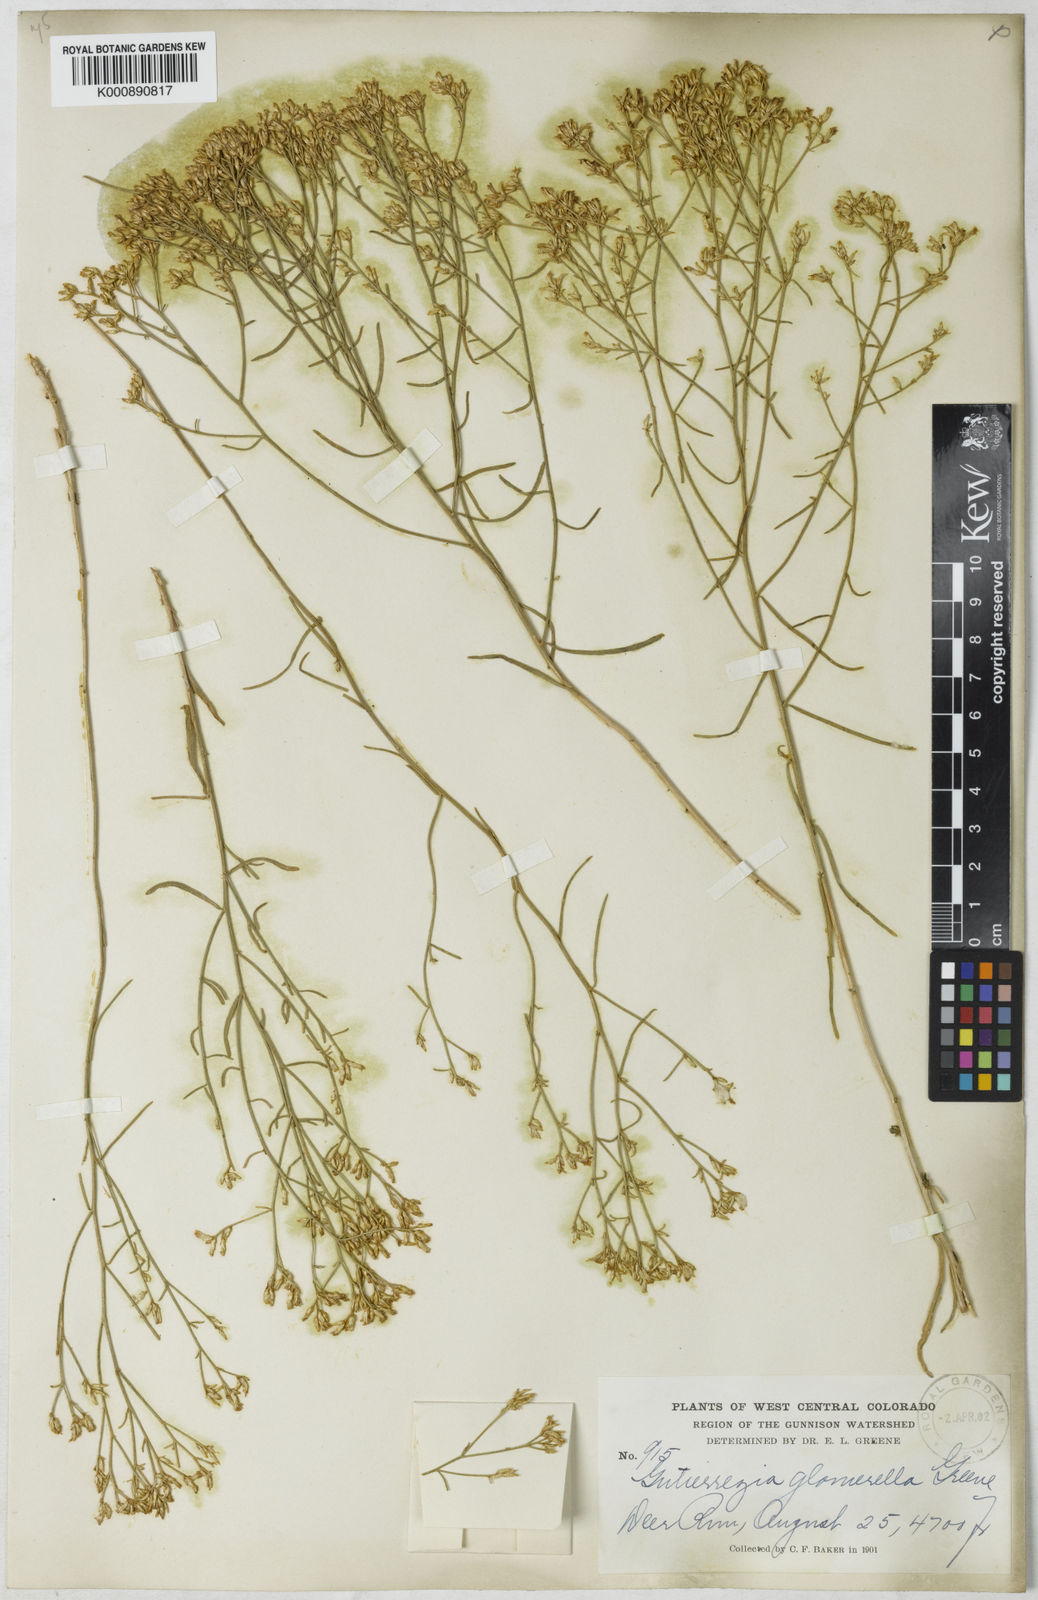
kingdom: Plantae
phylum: Tracheophyta
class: Magnoliopsida
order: Asterales
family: Asteraceae
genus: Gutierrezia
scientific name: Gutierrezia microcephala
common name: Thread snakeweed
